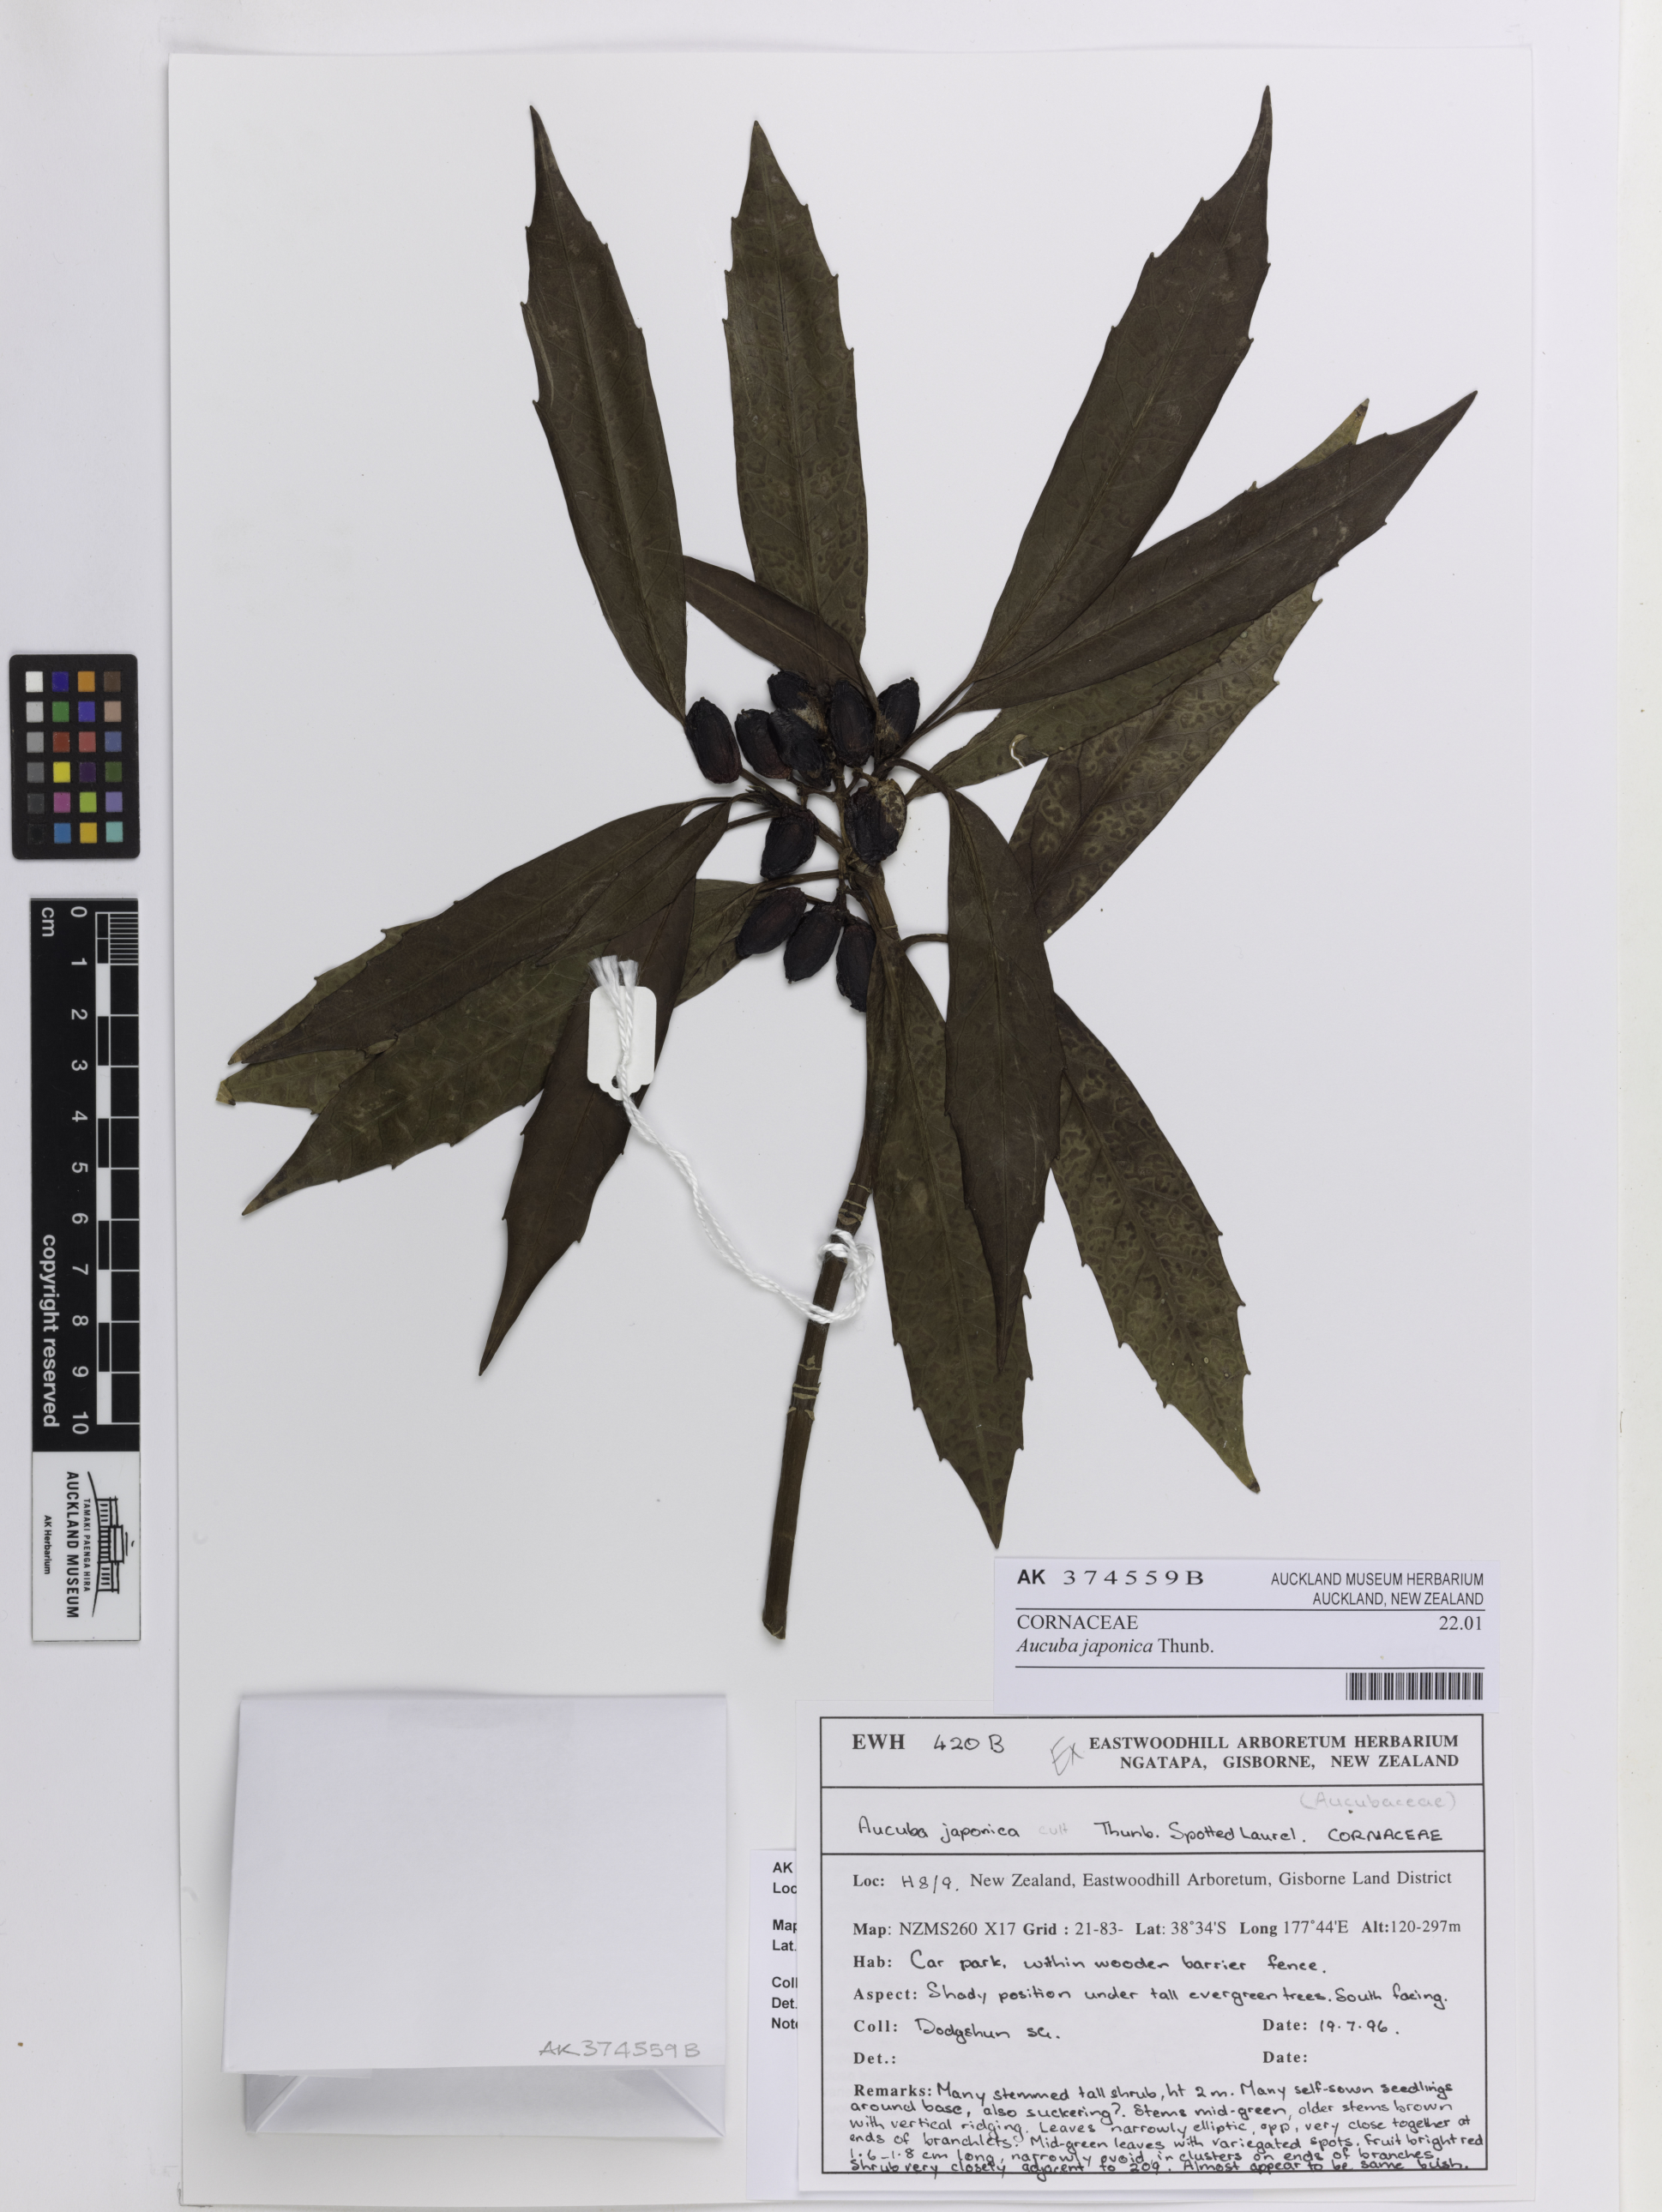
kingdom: Plantae
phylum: Tracheophyta
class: Magnoliopsida
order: Garryales
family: Garryaceae
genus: Aucuba
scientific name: Aucuba japonica
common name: Spotted-laurel
